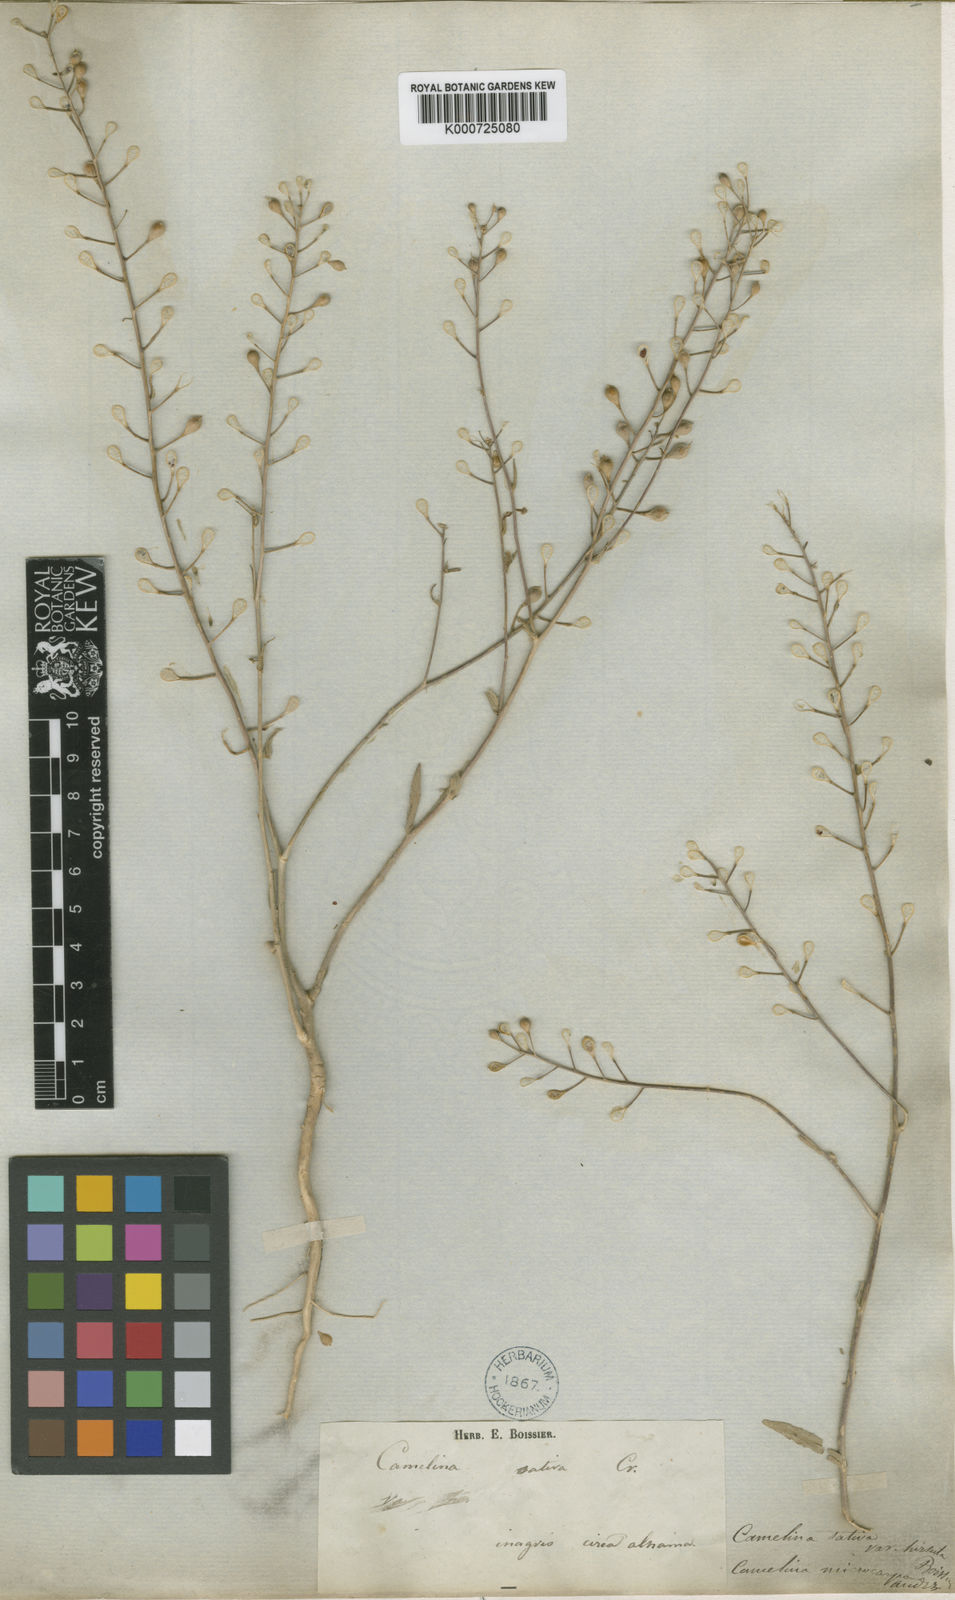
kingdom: Plantae
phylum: Tracheophyta
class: Magnoliopsida
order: Brassicales
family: Brassicaceae
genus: Camelina
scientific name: Camelina rumelica
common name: Graceful false flax
